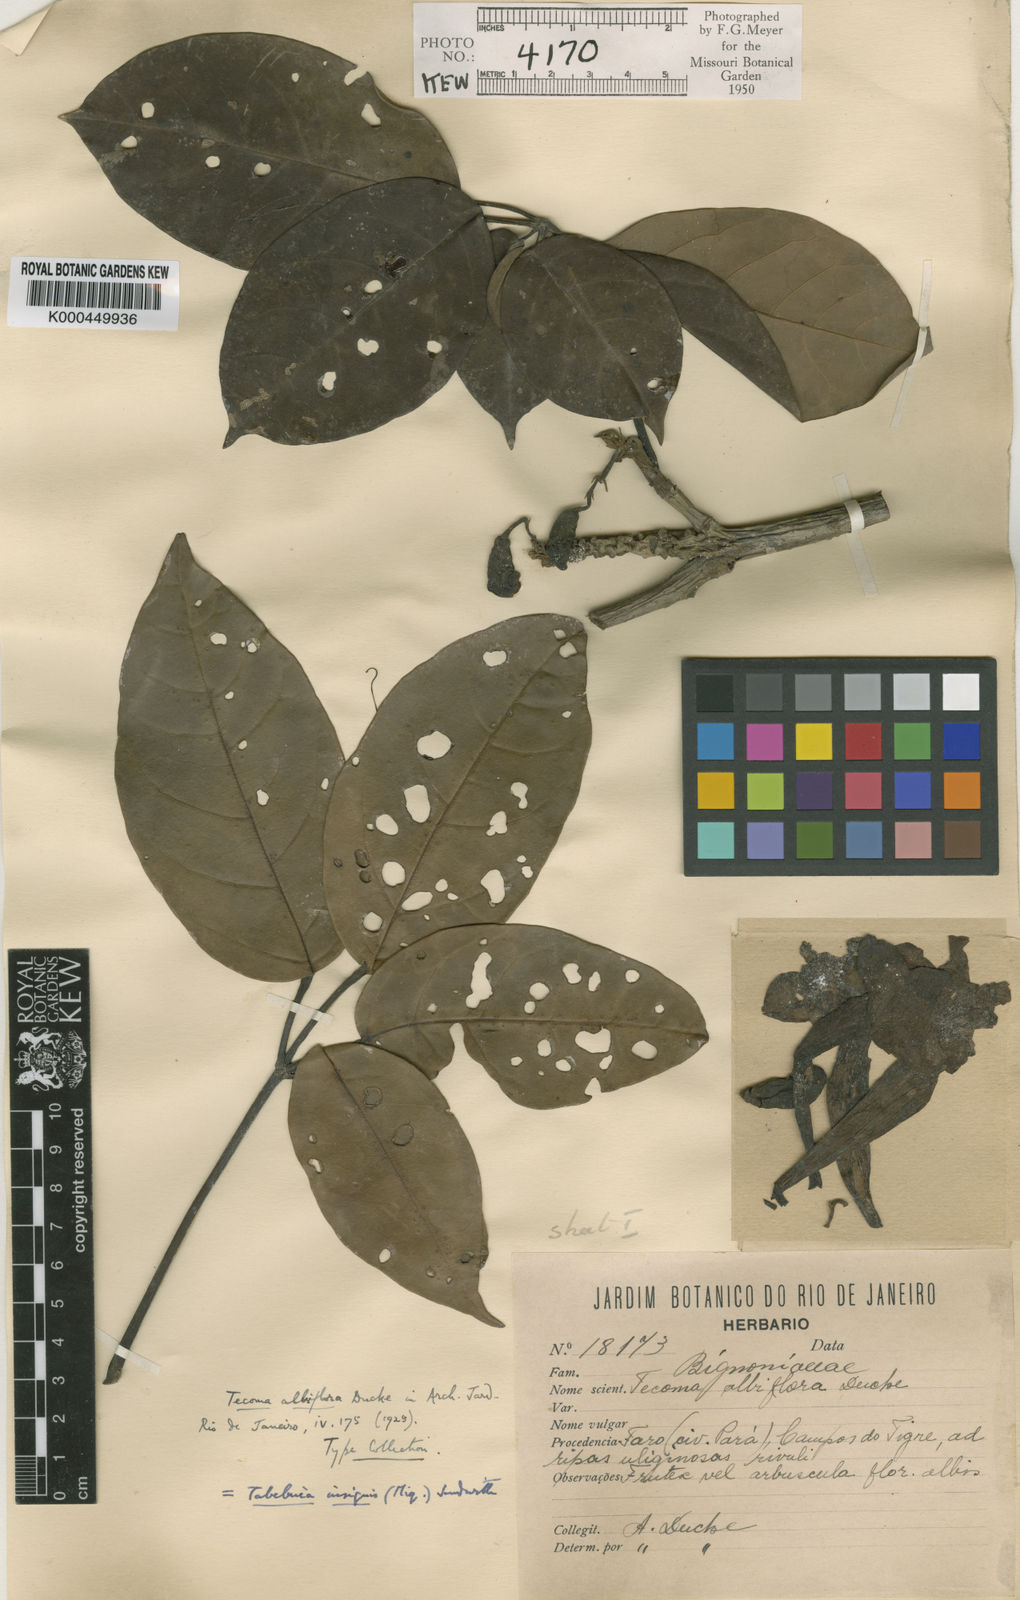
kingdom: Plantae
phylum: Tracheophyta
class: Magnoliopsida
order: Lamiales
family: Bignoniaceae
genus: Tabebuia
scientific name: Tabebuia insignis
